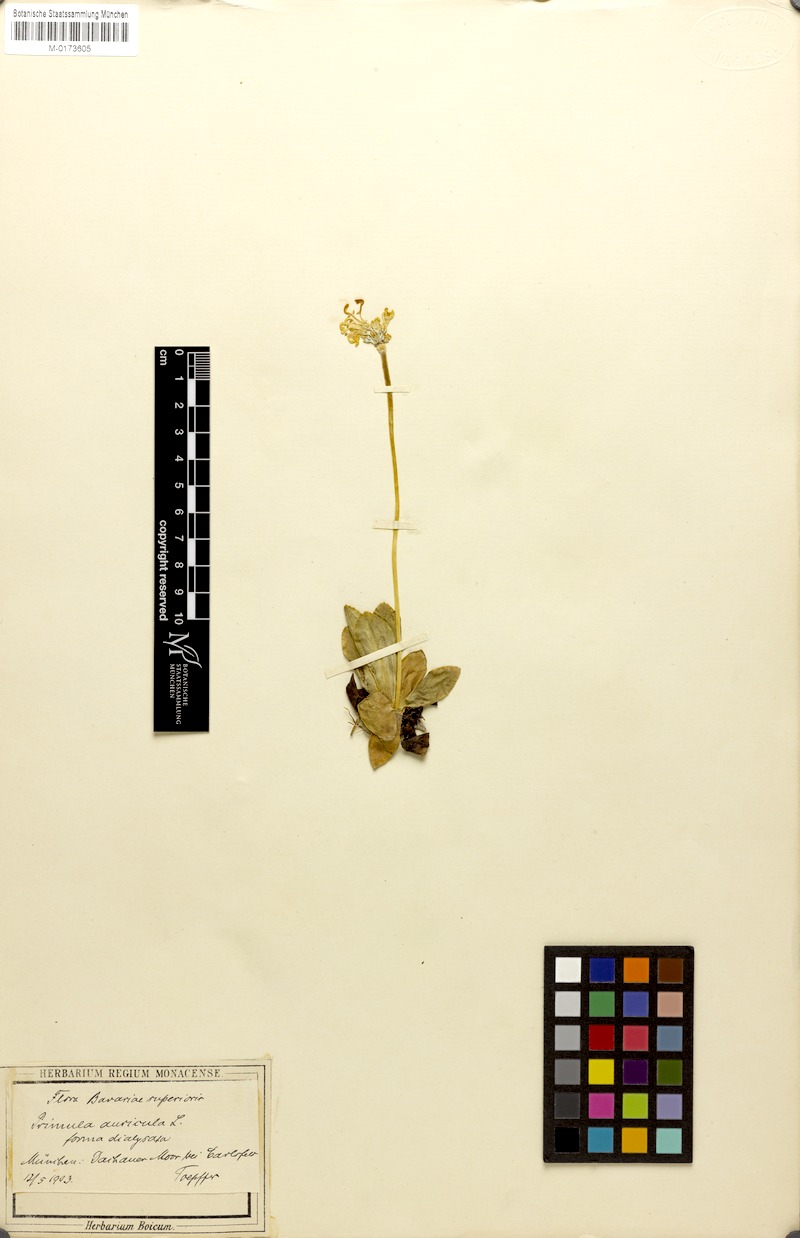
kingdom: Plantae
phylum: Tracheophyta
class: Magnoliopsida
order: Ericales
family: Primulaceae
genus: Primula
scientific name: Primula auricula
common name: Auricula
